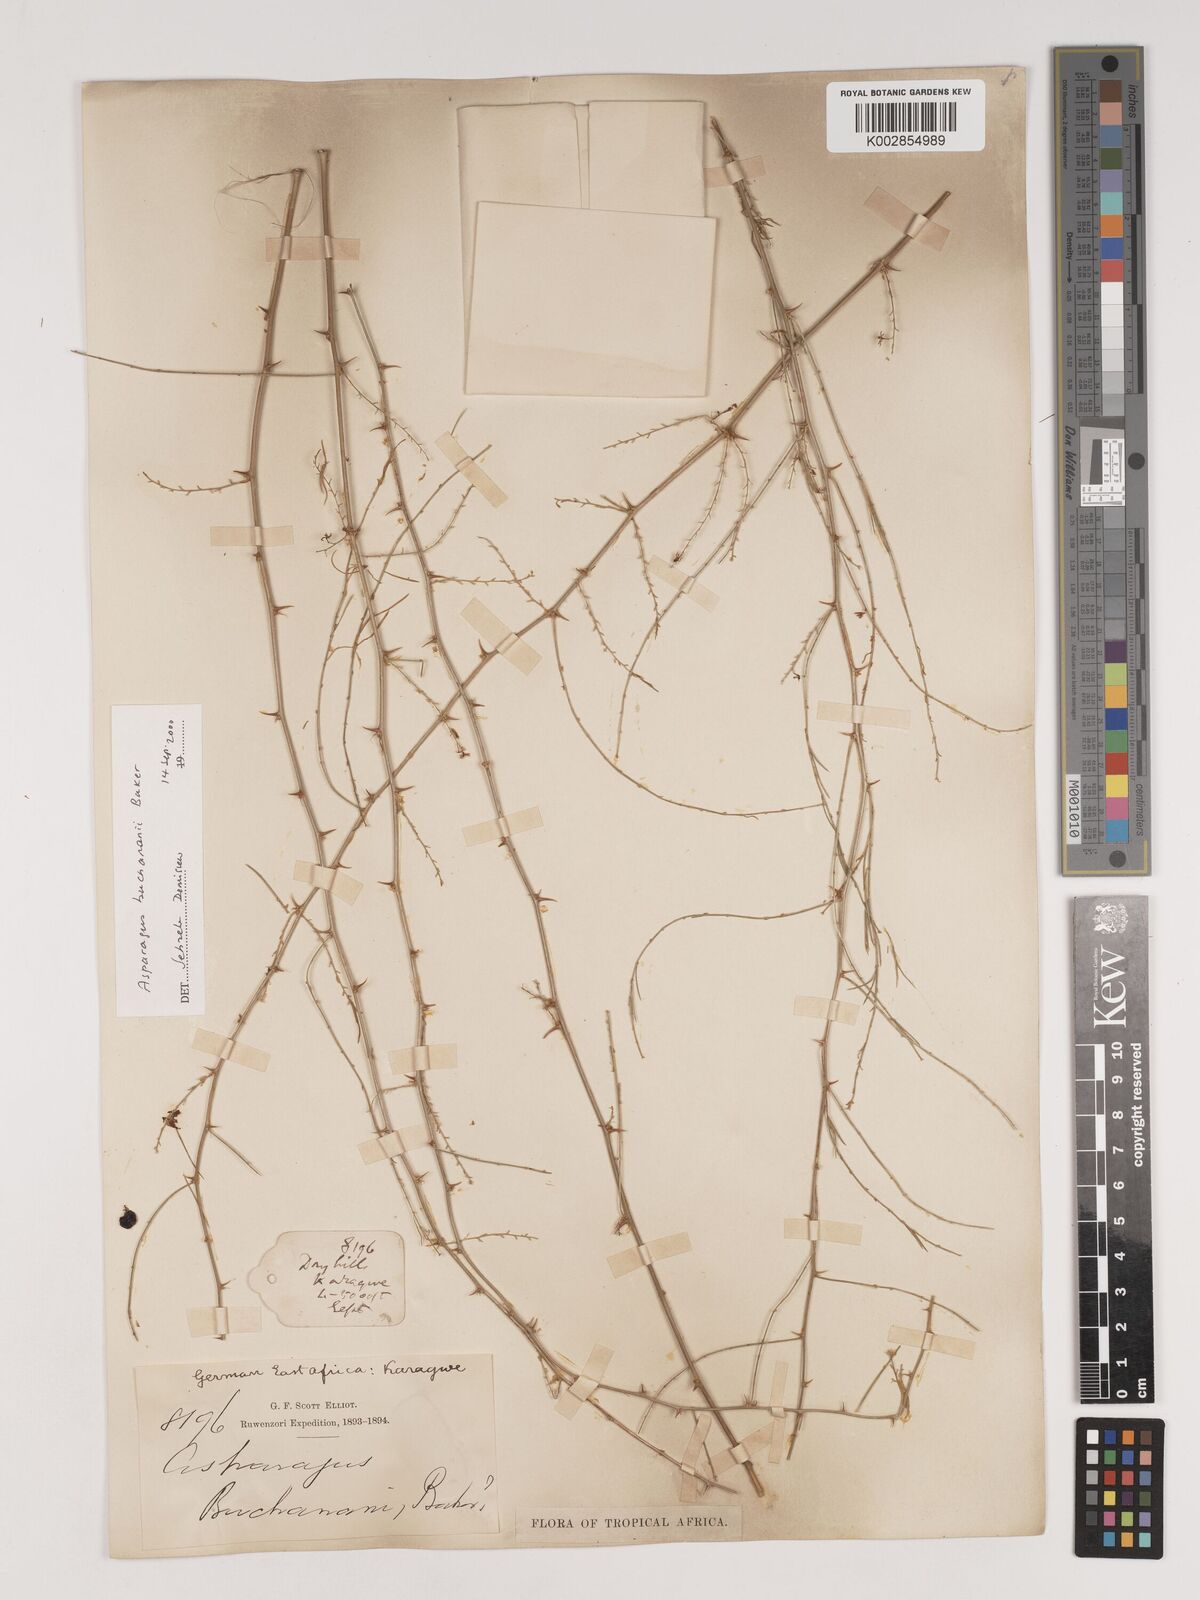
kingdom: Plantae
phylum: Tracheophyta
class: Liliopsida
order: Asparagales
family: Asparagaceae
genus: Asparagus
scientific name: Asparagus buchananii
